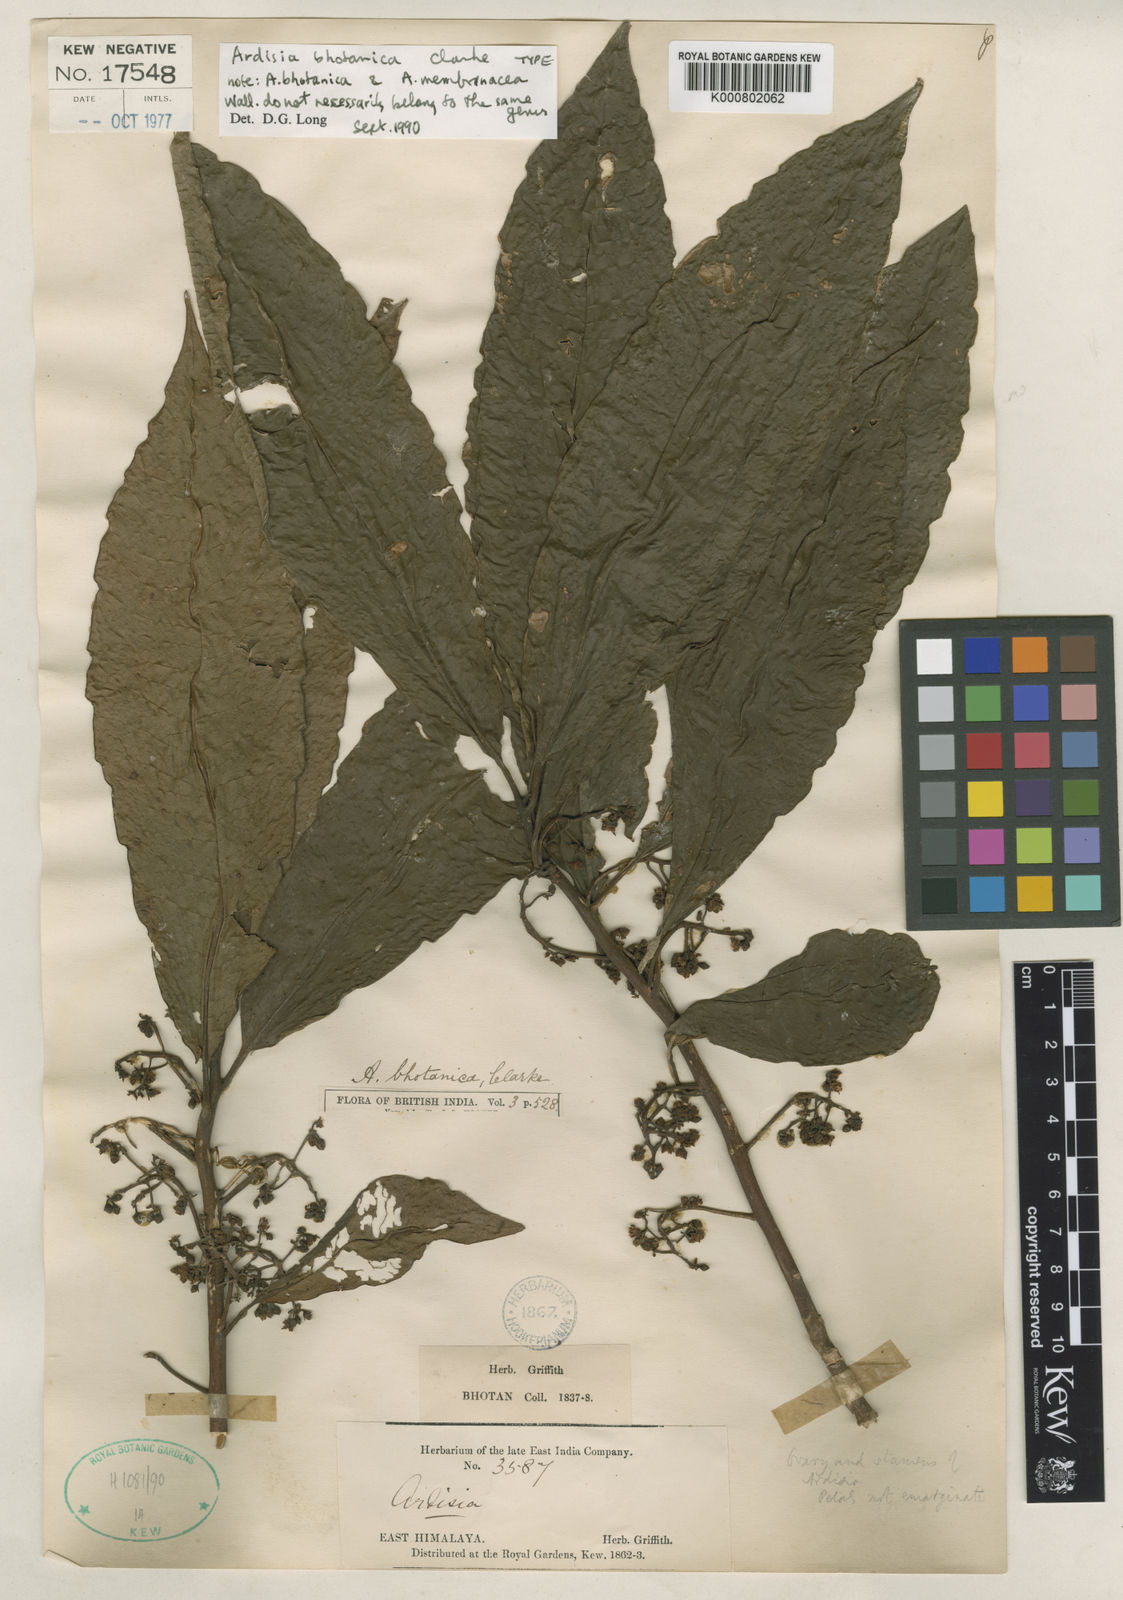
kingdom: Plantae
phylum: Tracheophyta
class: Magnoliopsida
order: Ericales
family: Primulaceae
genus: Amblyanthopsis
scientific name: Amblyanthopsis bhotanica
